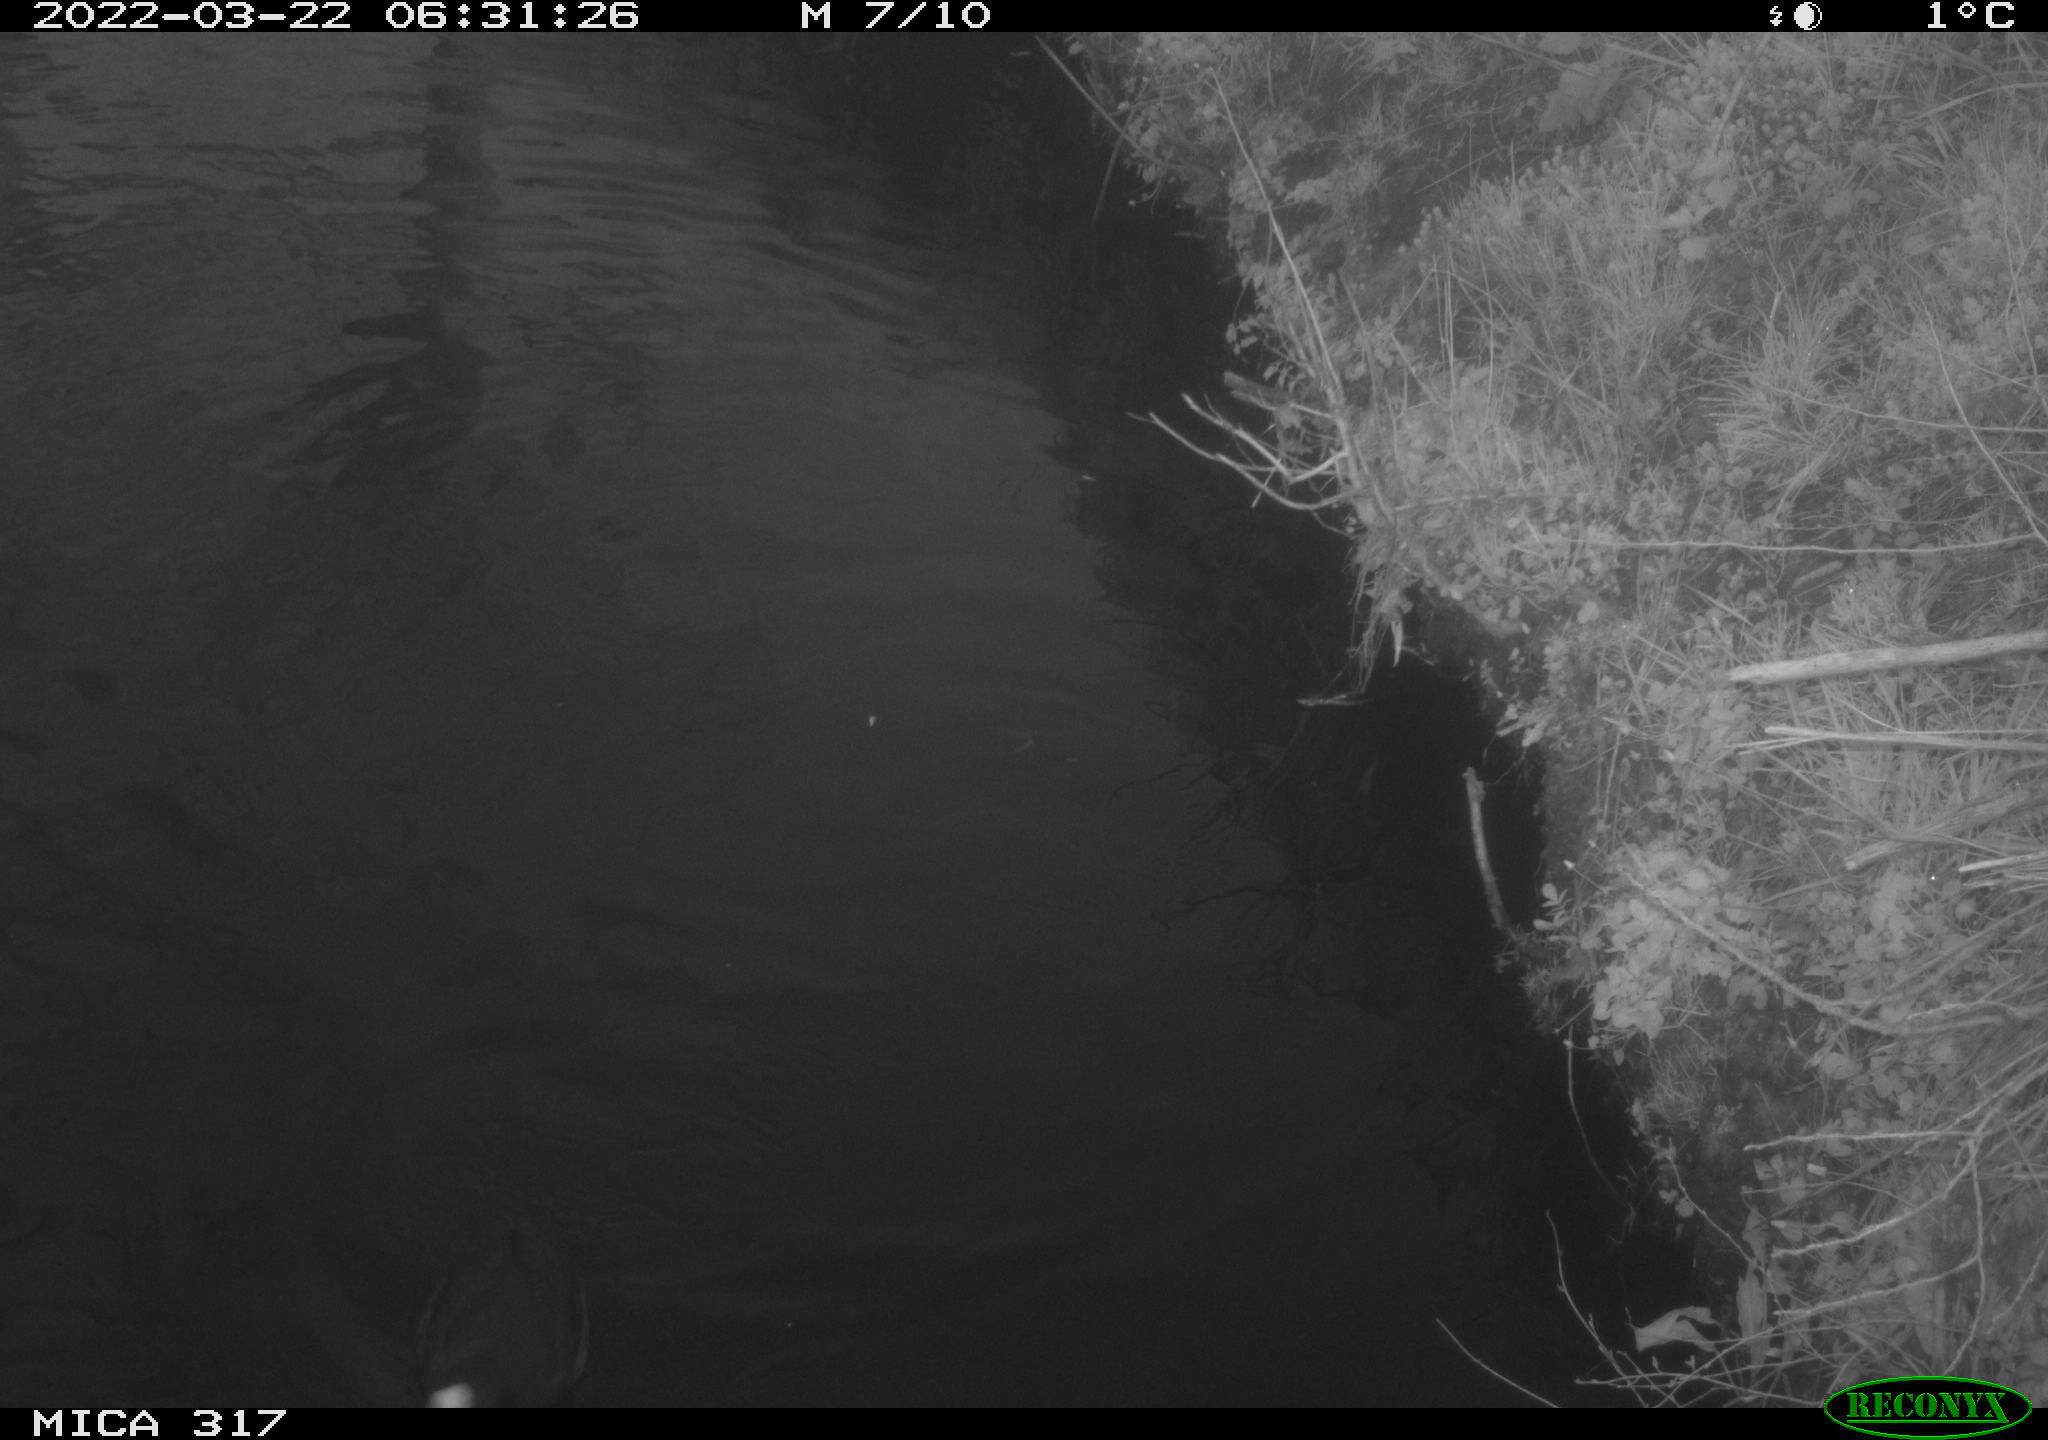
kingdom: Animalia
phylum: Chordata
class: Aves
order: Gruiformes
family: Rallidae
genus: Fulica
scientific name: Fulica atra
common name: Eurasian coot
